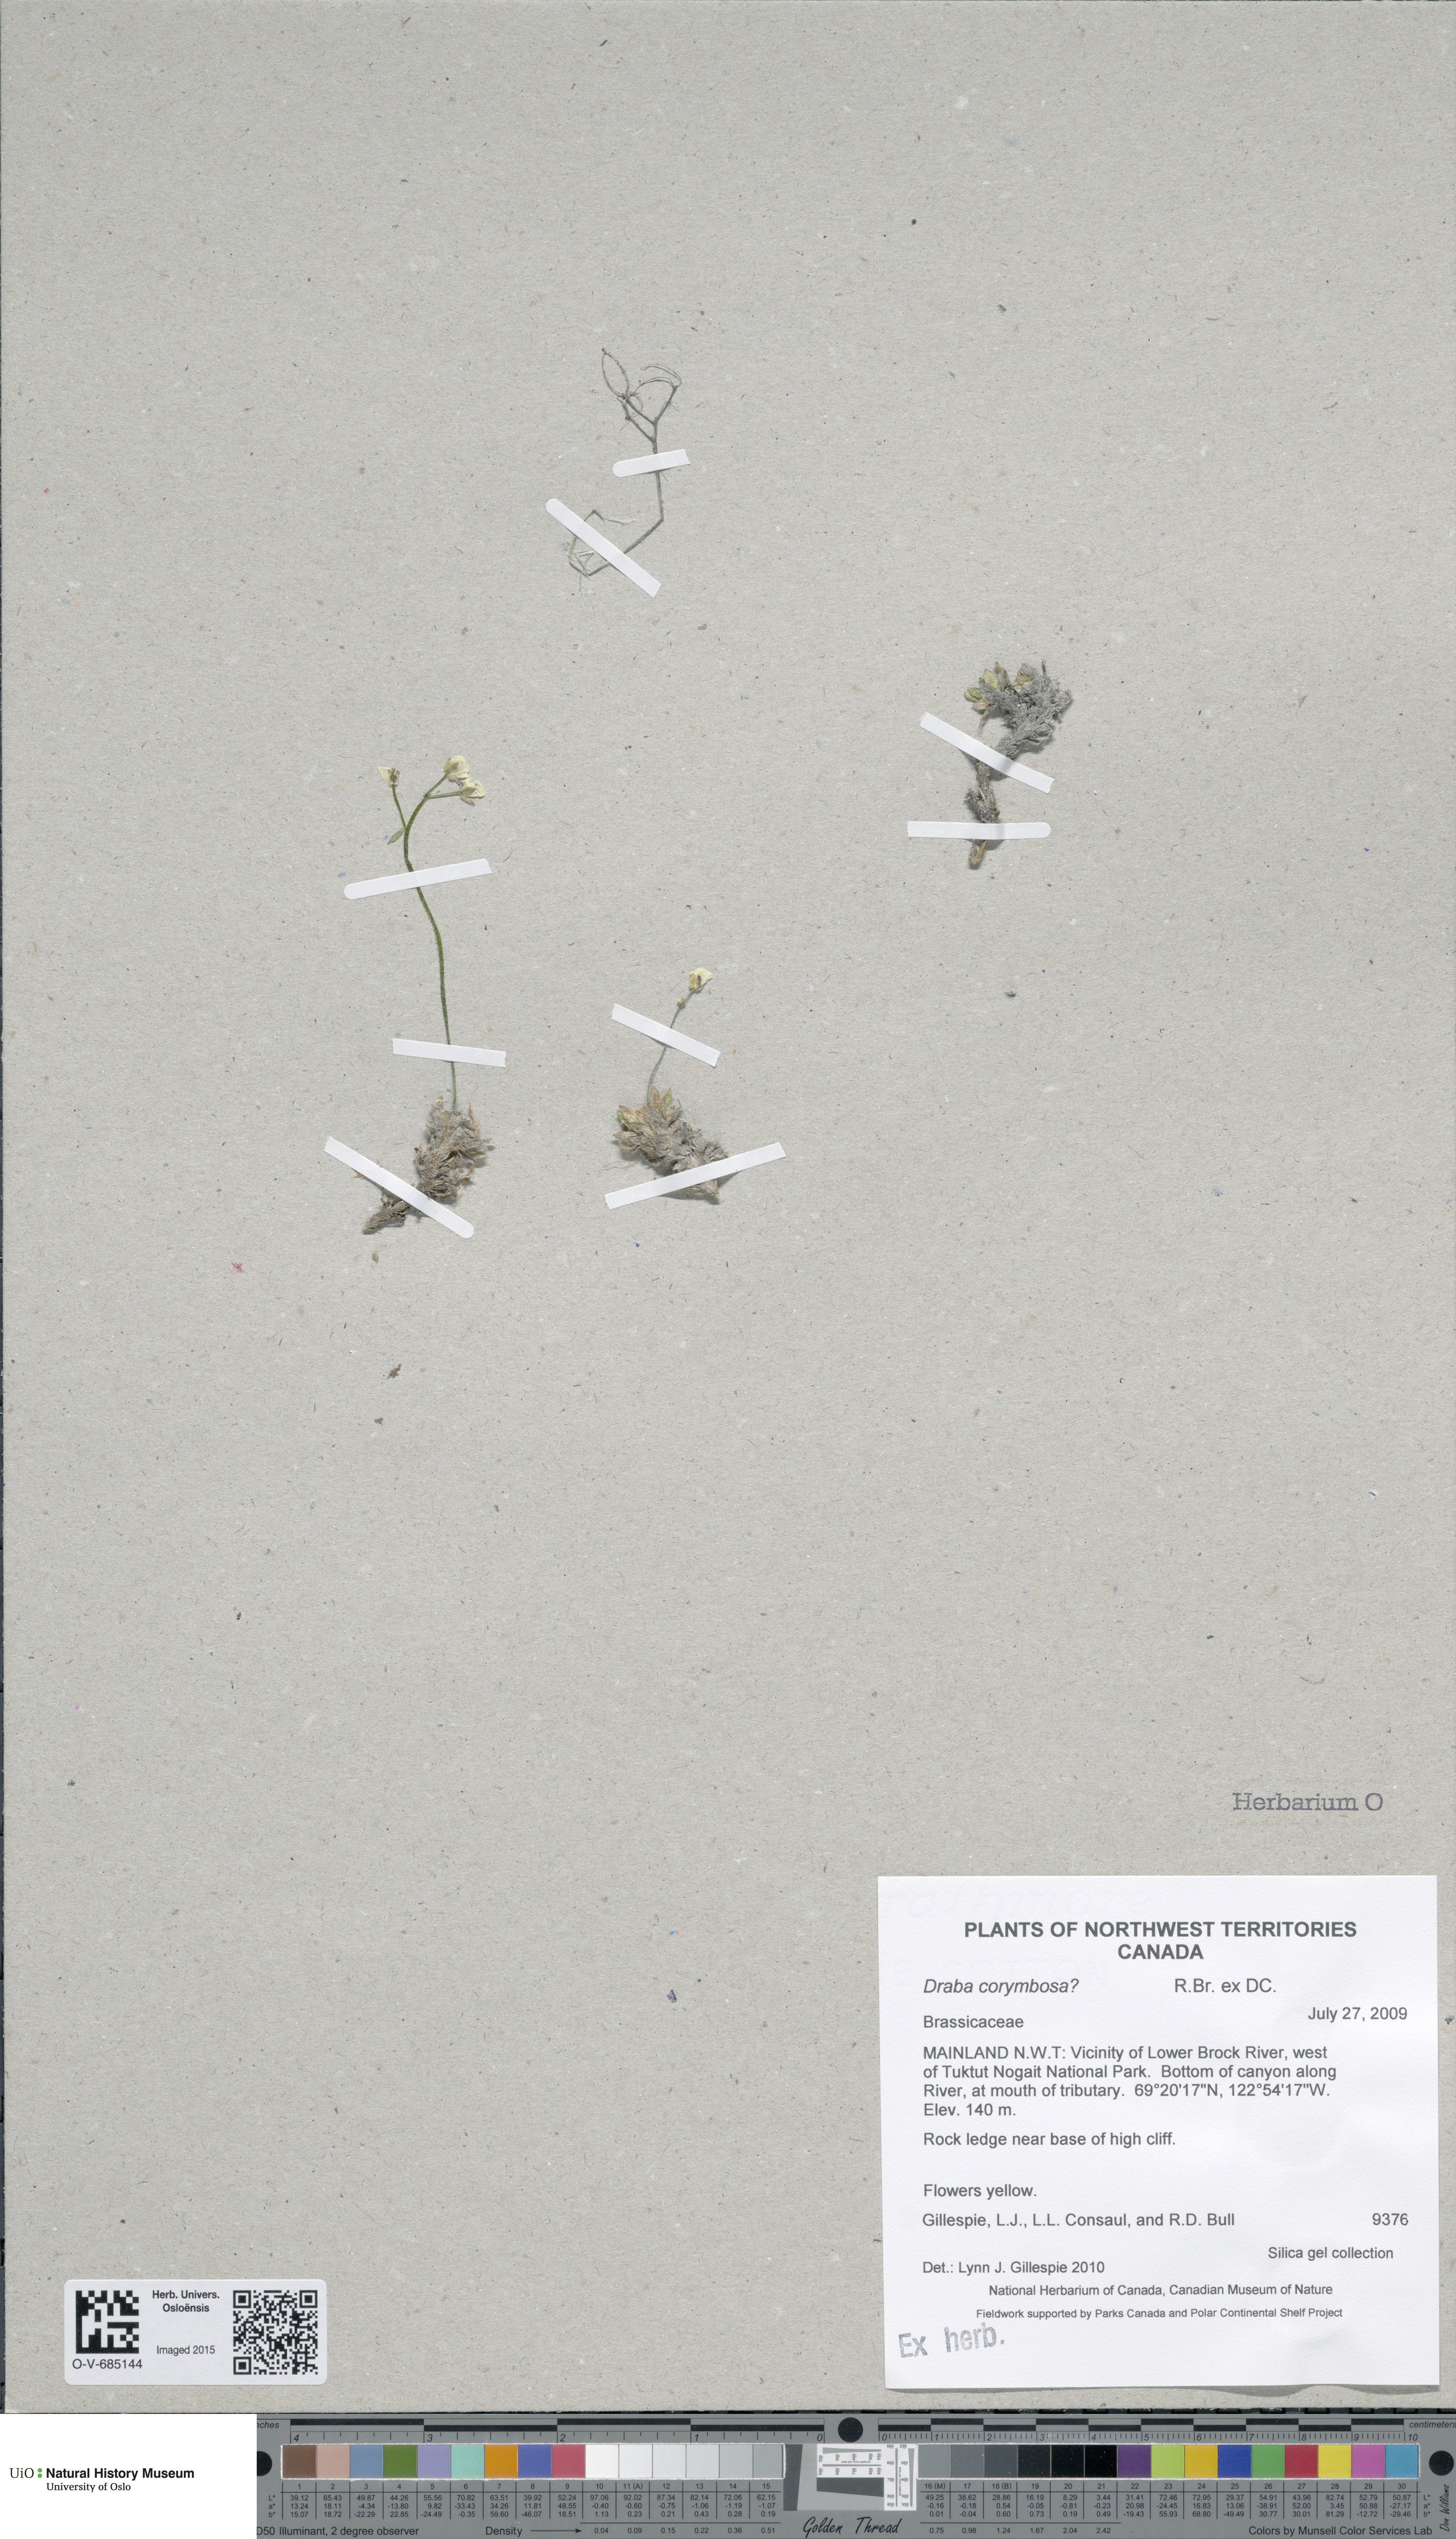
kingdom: Plantae
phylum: Tracheophyta
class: Magnoliopsida
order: Brassicales
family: Brassicaceae
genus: Draba
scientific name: Draba corymbosa
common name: Cushion whitlow-grass
